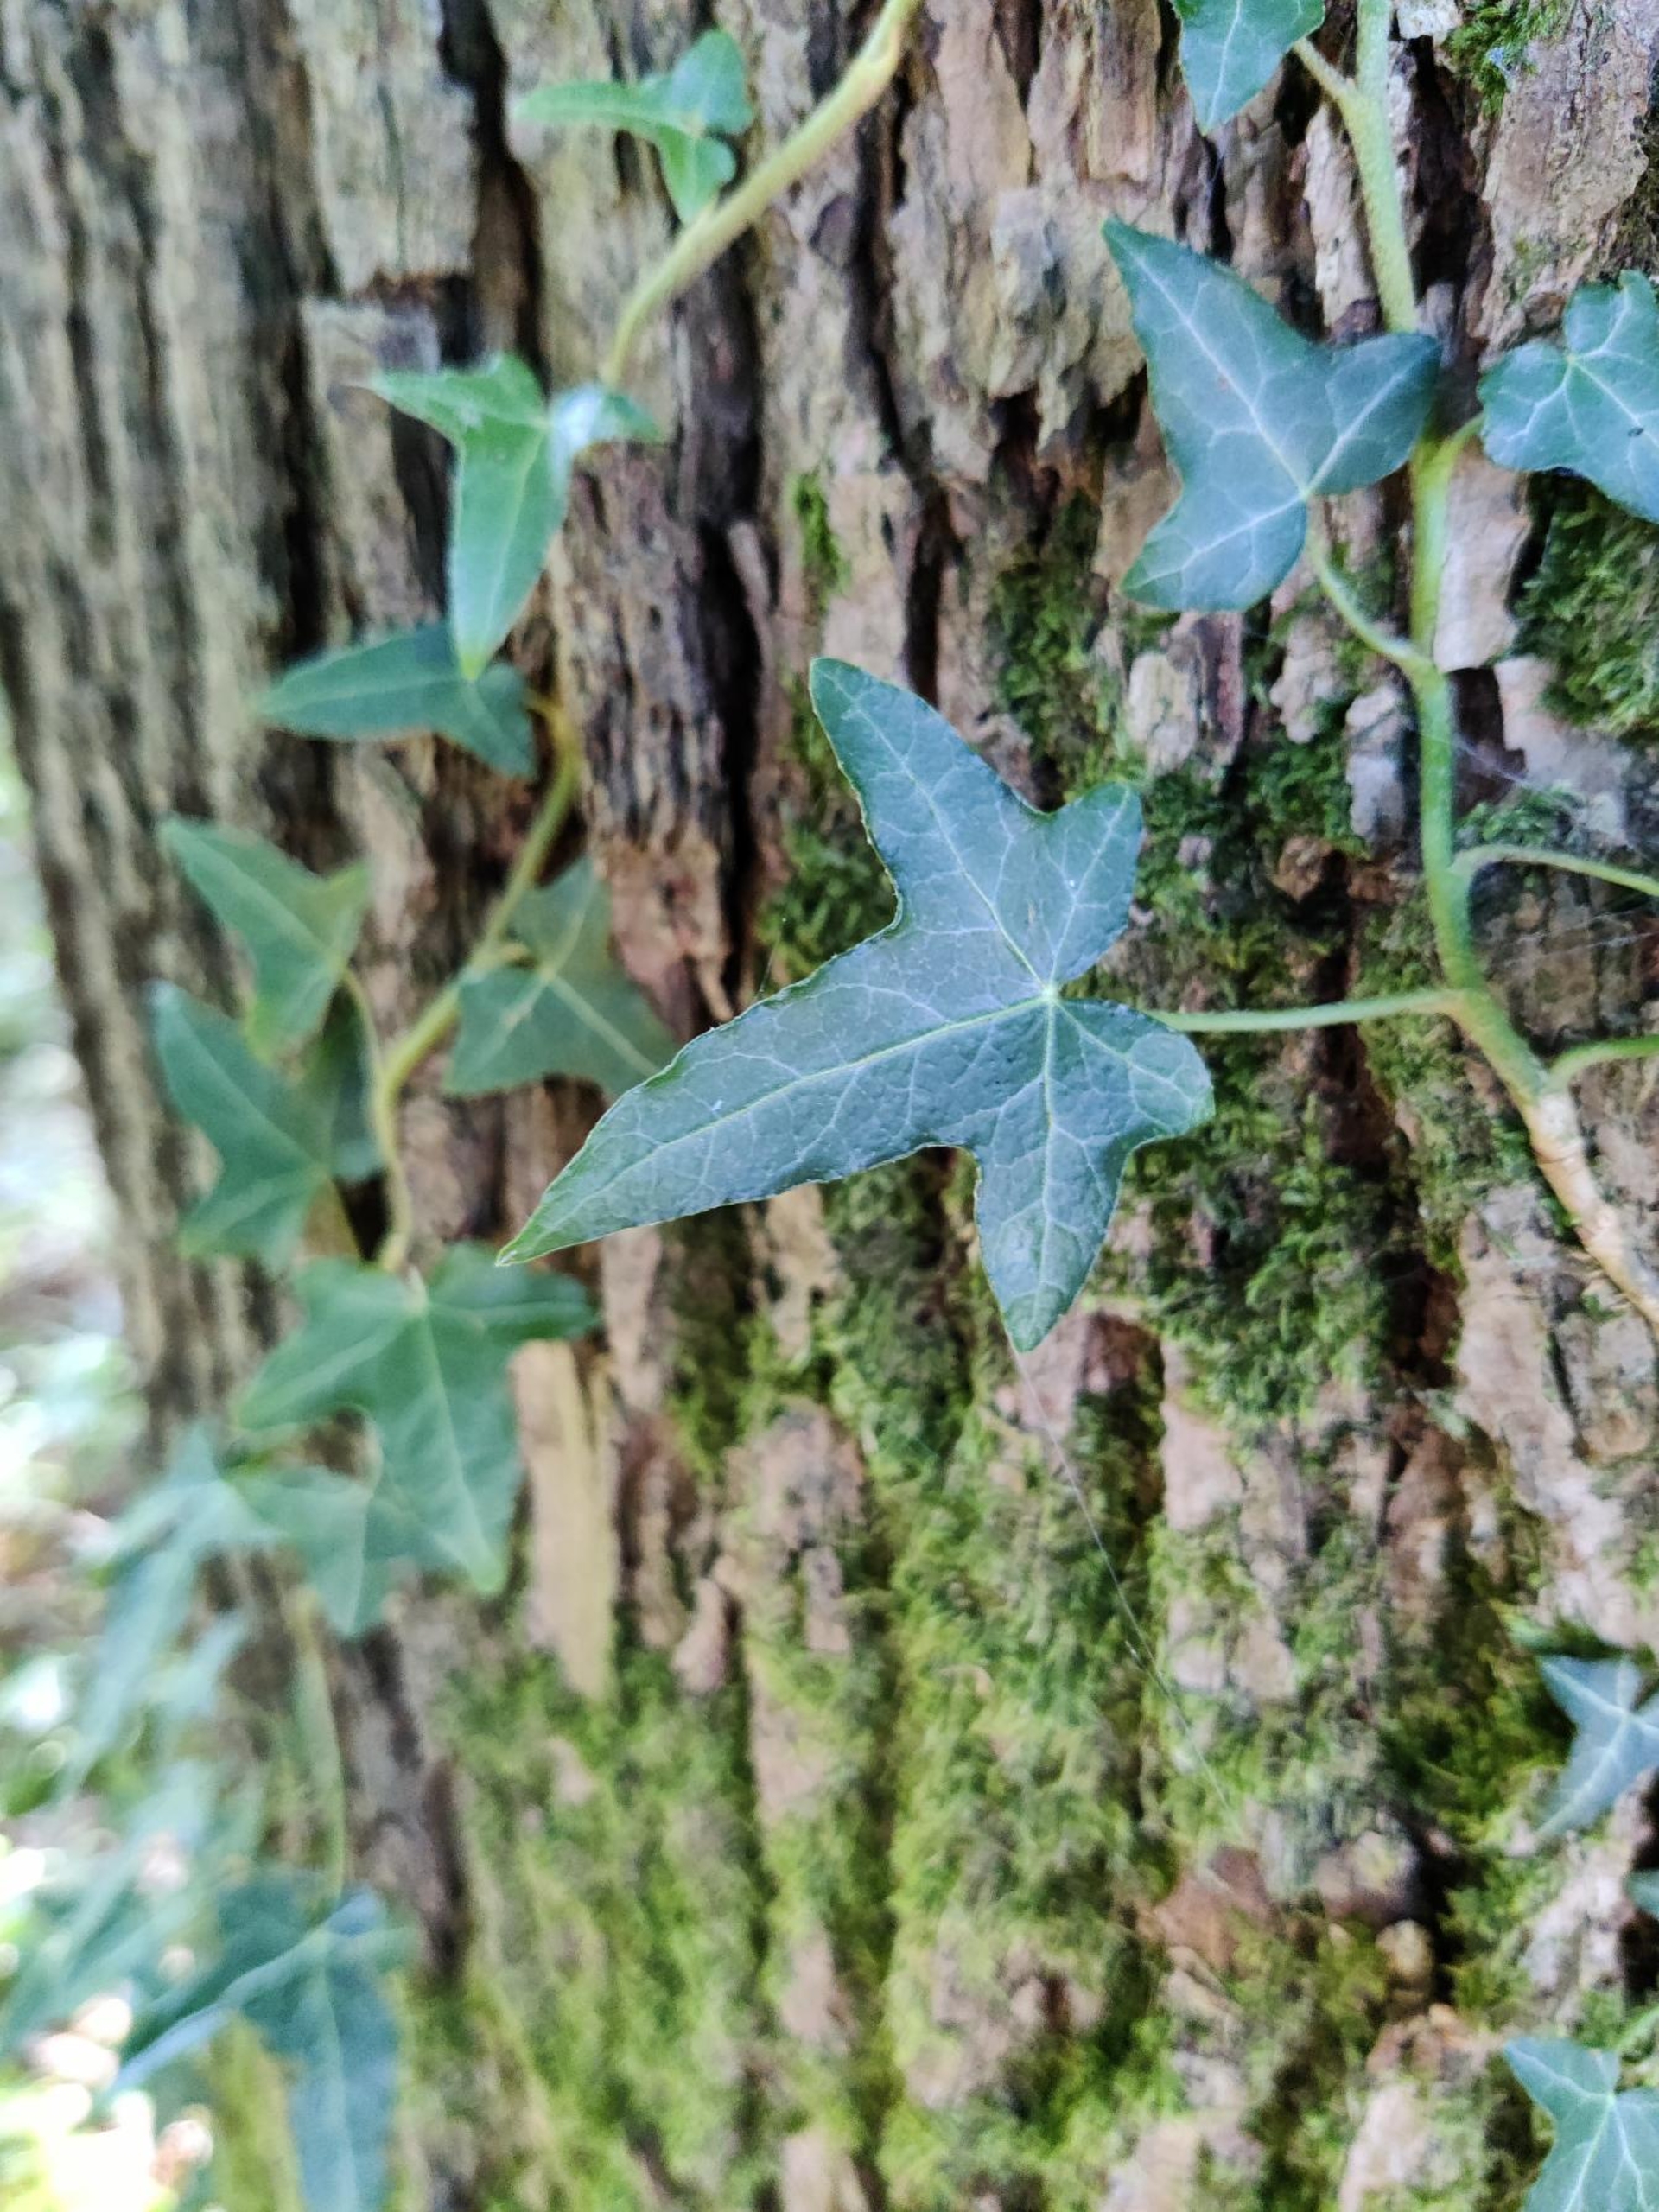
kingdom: Plantae
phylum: Tracheophyta
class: Magnoliopsida
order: Apiales
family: Araliaceae
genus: Hedera
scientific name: Hedera helix
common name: Vedbend
